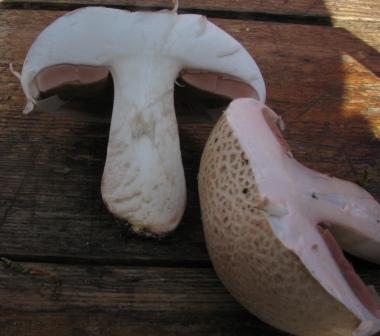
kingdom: Fungi
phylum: Basidiomycota
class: Agaricomycetes
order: Agaricales
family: Agaricaceae
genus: Agaricus
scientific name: Agaricus litoralis
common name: kyst-champignon
